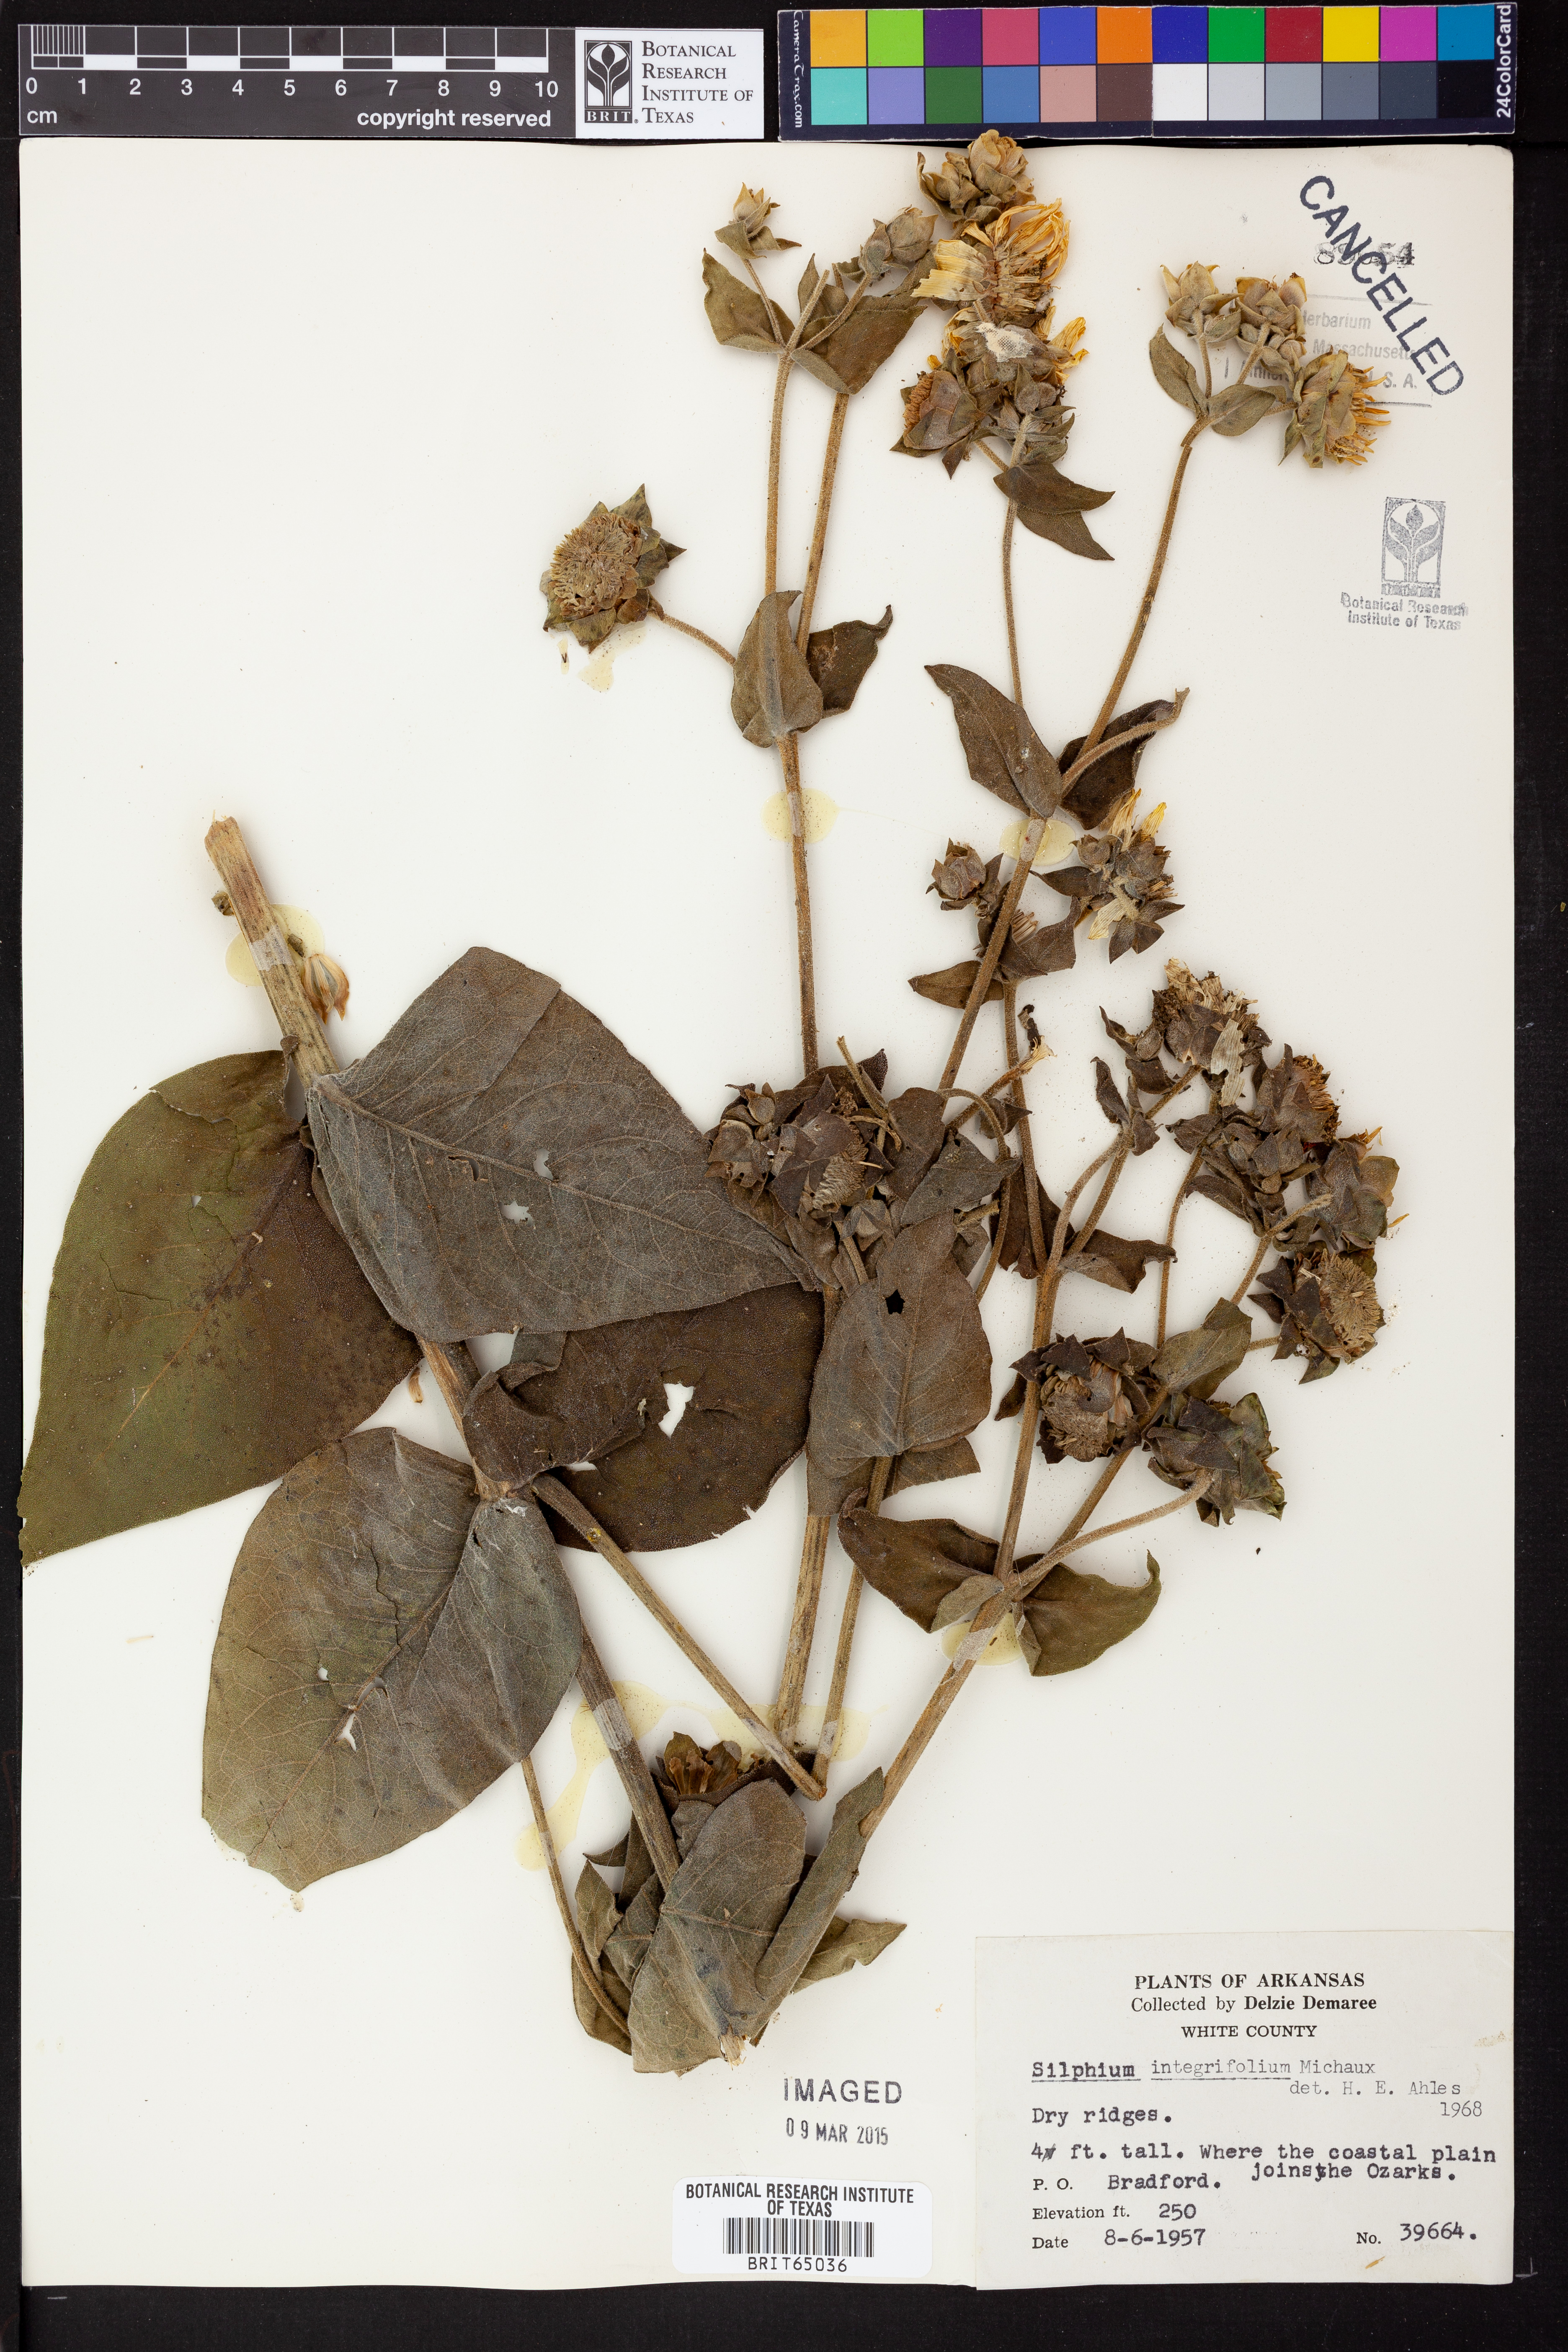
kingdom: Plantae
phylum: Tracheophyta
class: Magnoliopsida
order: Asterales
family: Asteraceae
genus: Silphium
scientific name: Silphium integrifolium
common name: Whole-leaf rosinweed
